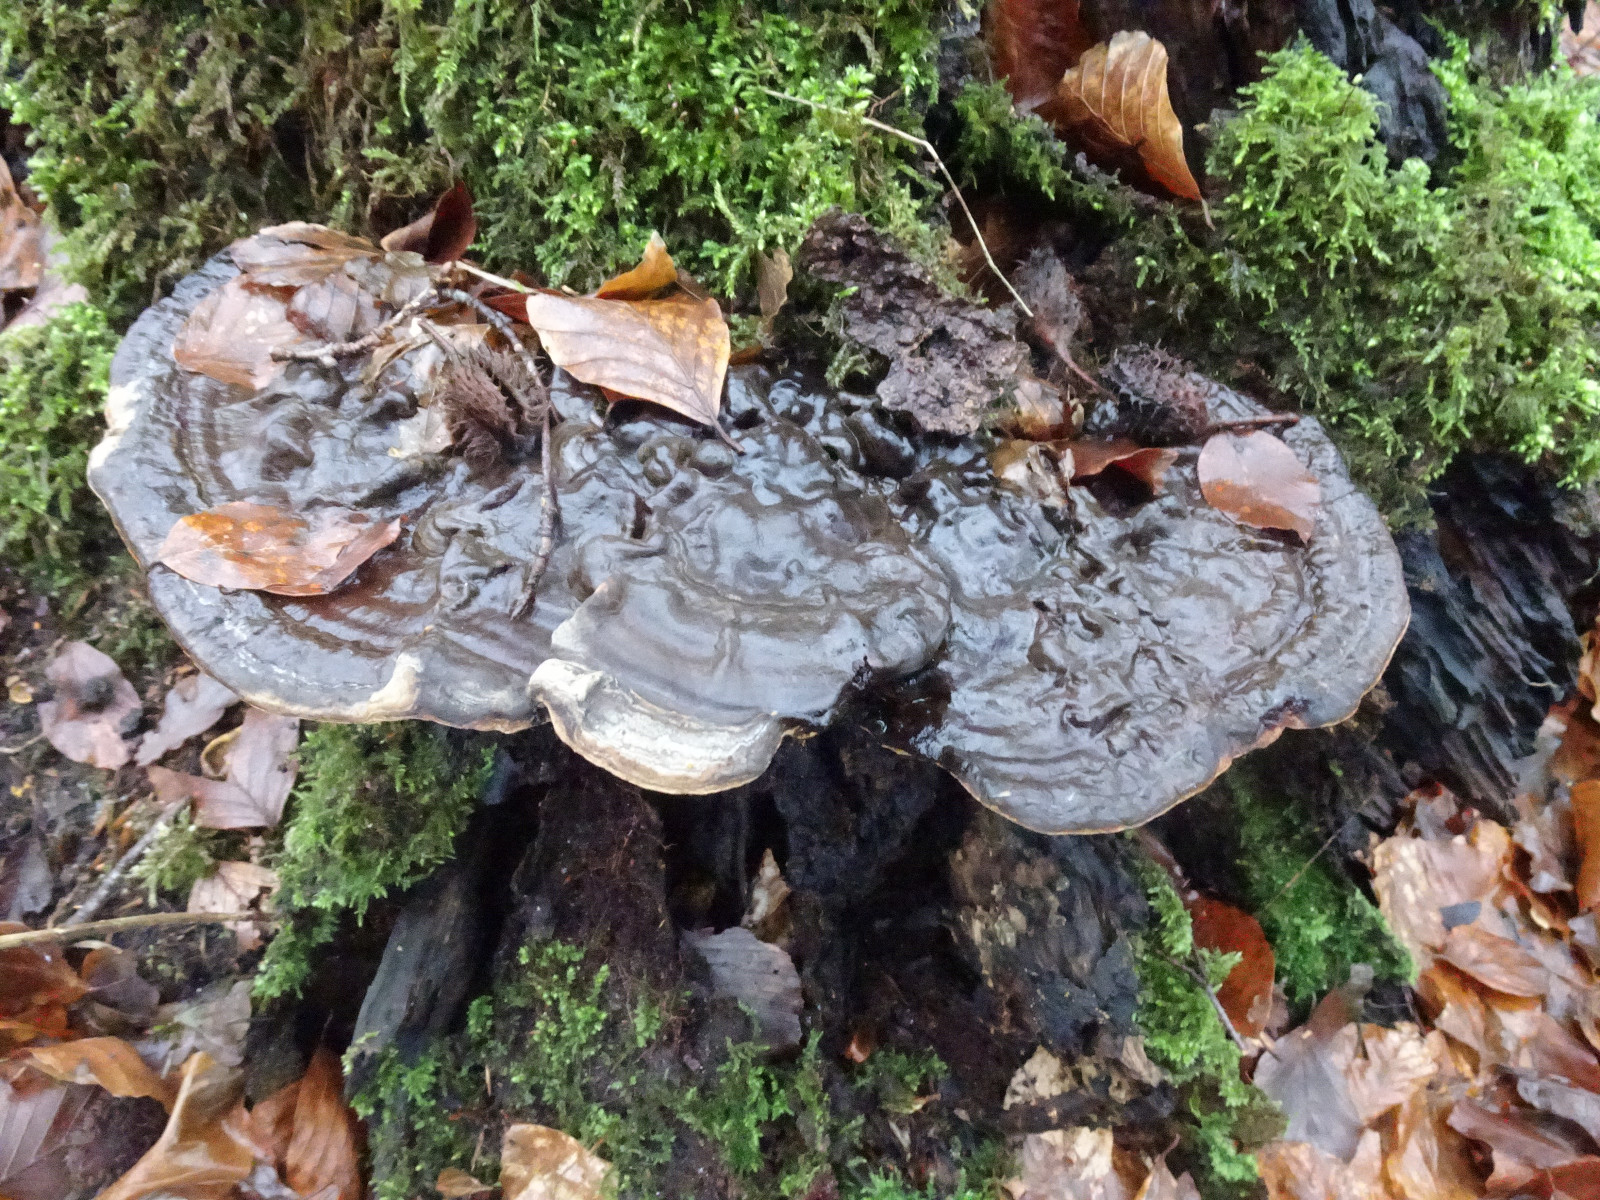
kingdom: Fungi
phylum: Basidiomycota
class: Agaricomycetes
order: Polyporales
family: Polyporaceae
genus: Ganoderma
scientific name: Ganoderma applanatum
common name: flad lakporesvamp
